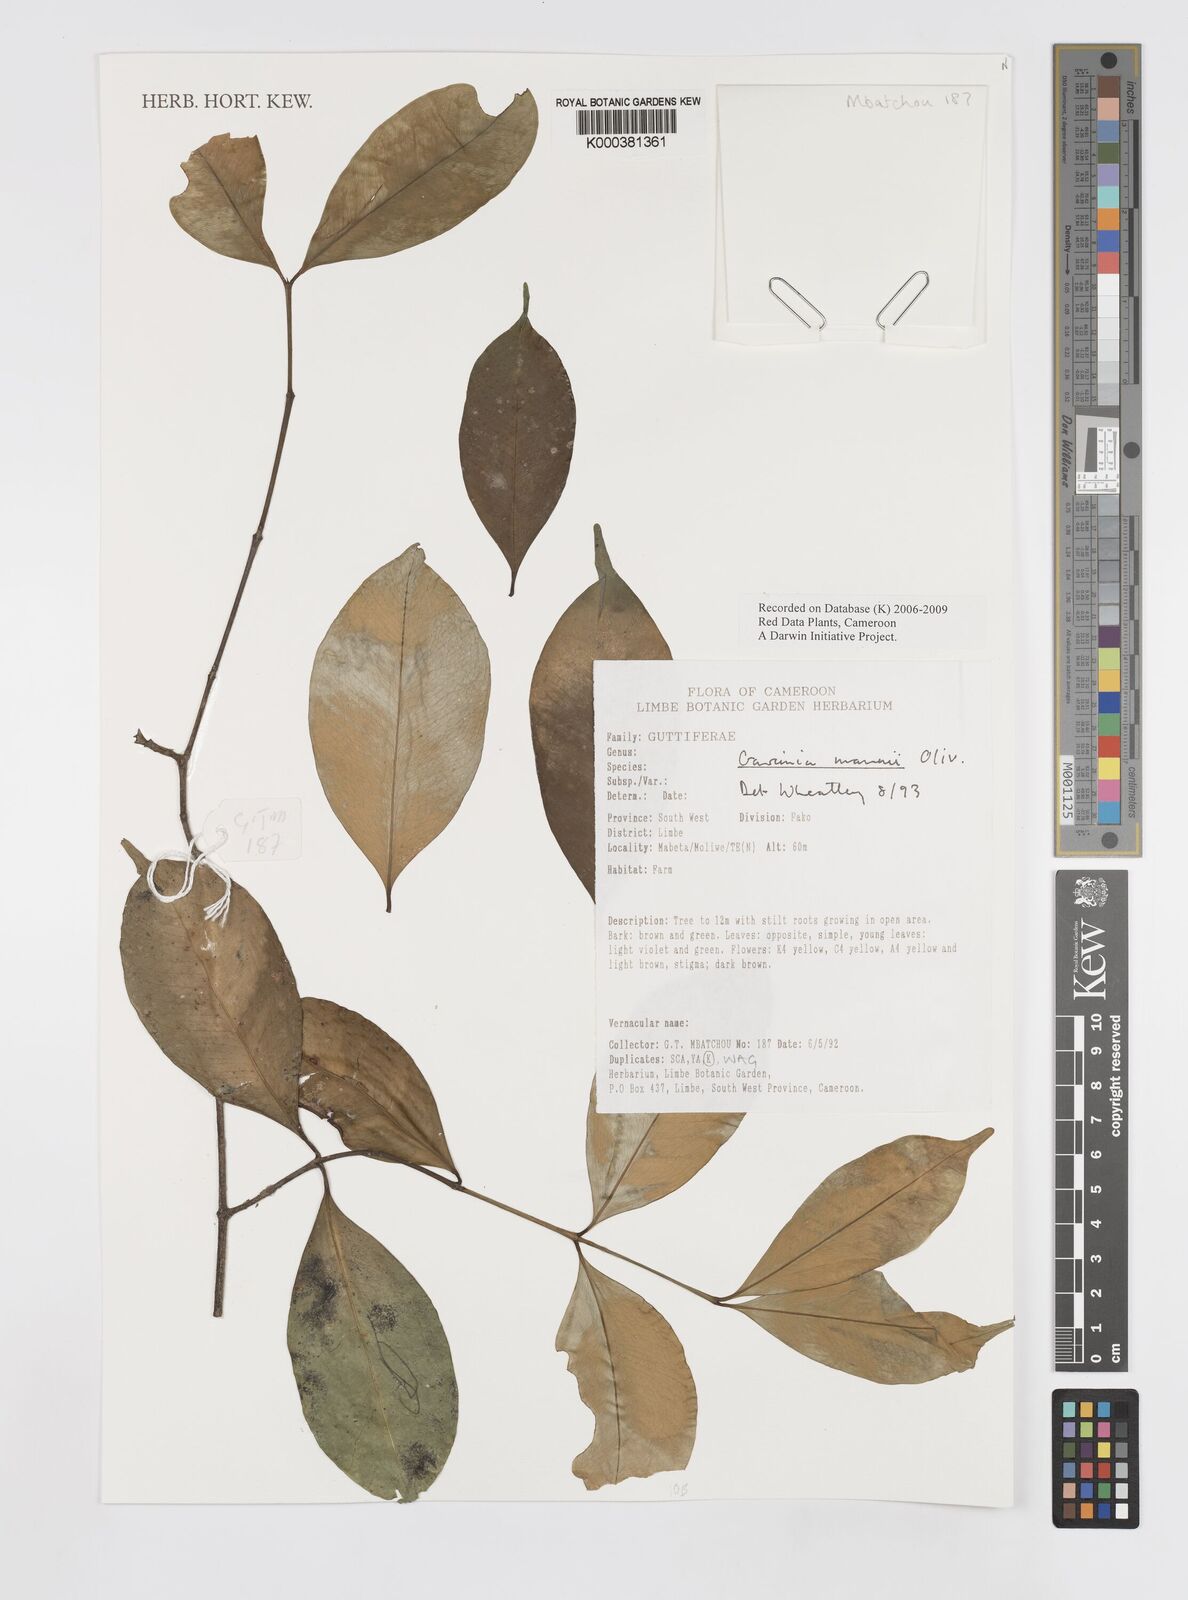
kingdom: Plantae
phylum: Tracheophyta
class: Magnoliopsida
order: Malpighiales
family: Clusiaceae
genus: Garcinia
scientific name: Garcinia mannii
